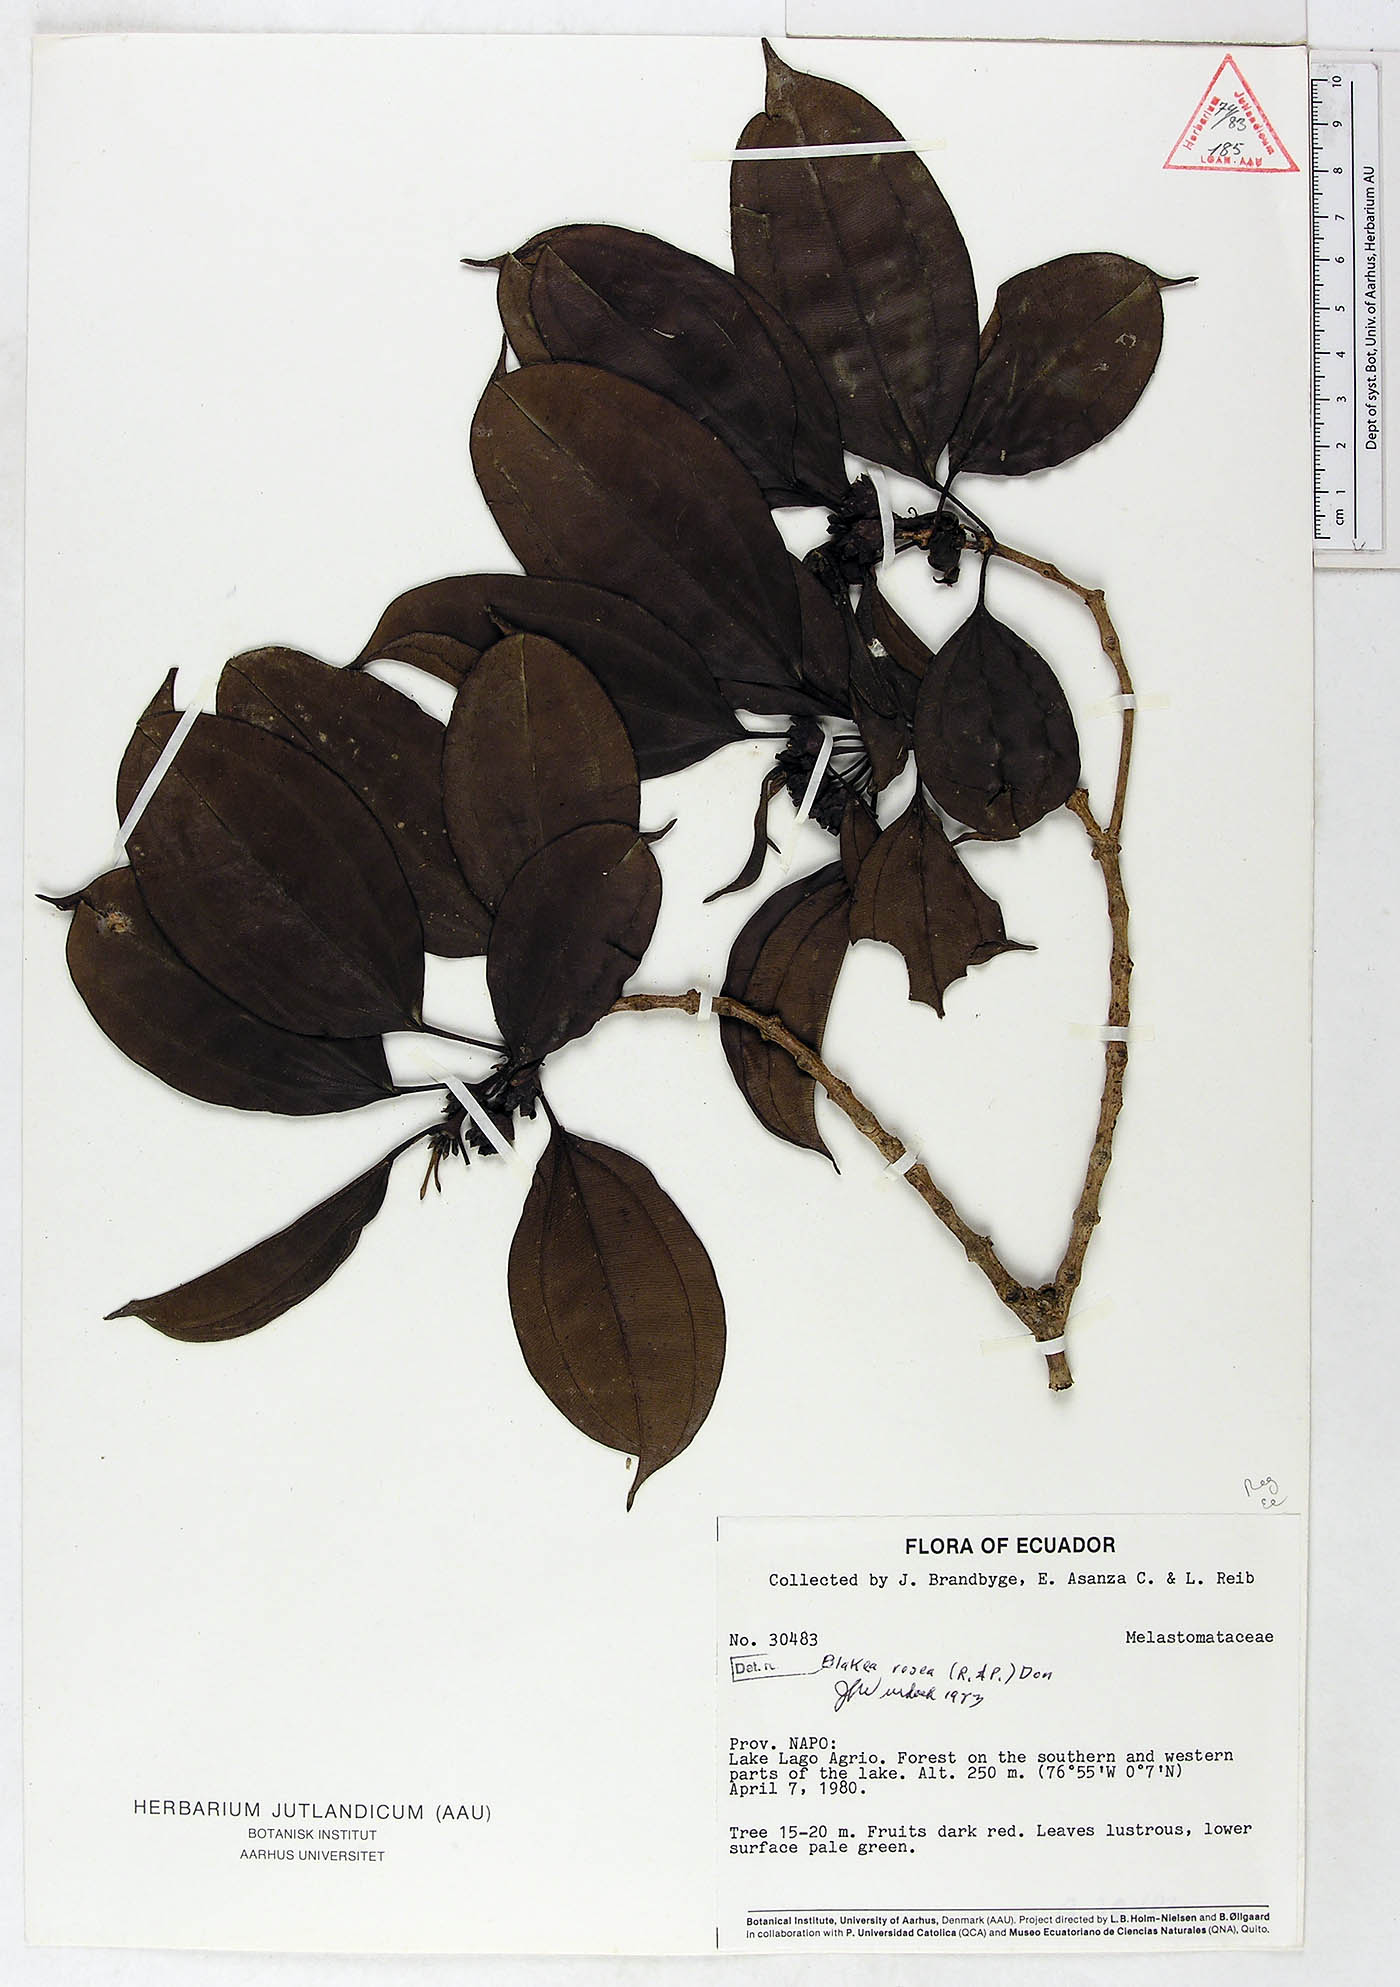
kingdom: Plantae
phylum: Tracheophyta
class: Magnoliopsida
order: Myrtales
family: Melastomataceae
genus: Blakea
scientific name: Blakea rosea
